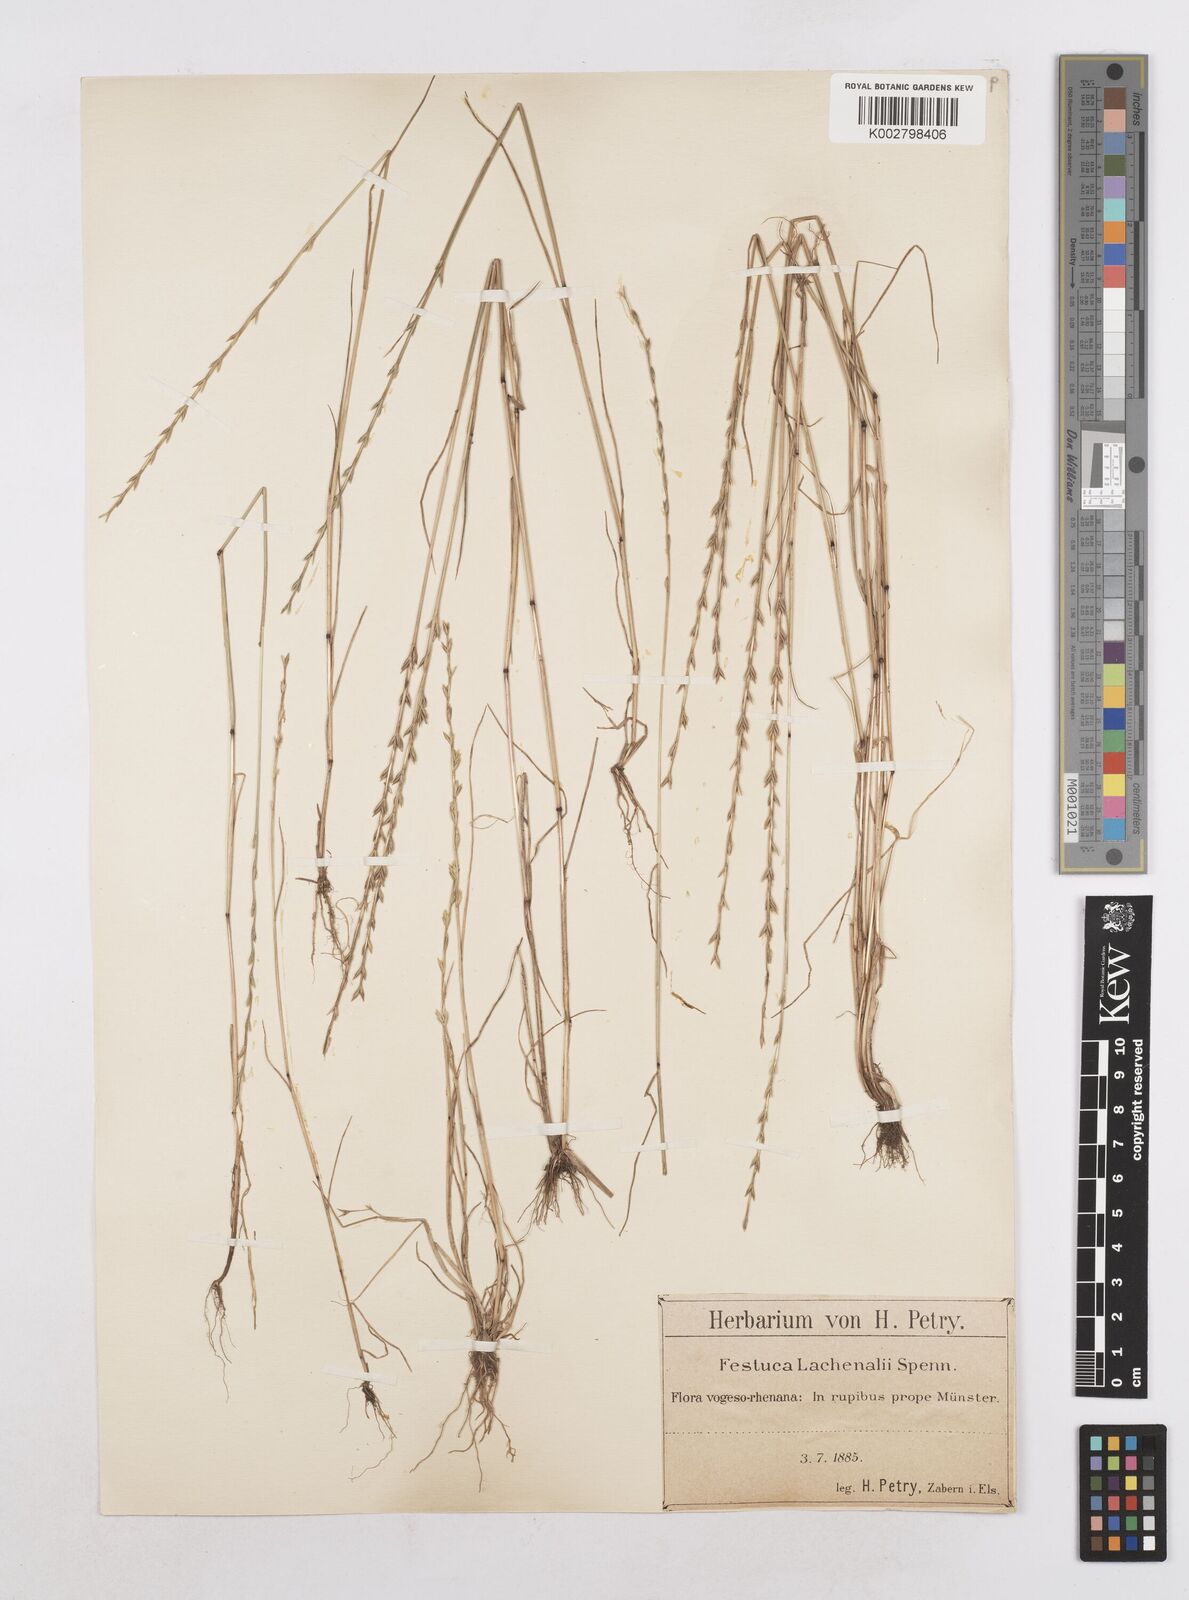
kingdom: Plantae
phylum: Tracheophyta
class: Liliopsida
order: Poales
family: Poaceae
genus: Festuca
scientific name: Festuca lachenalii
